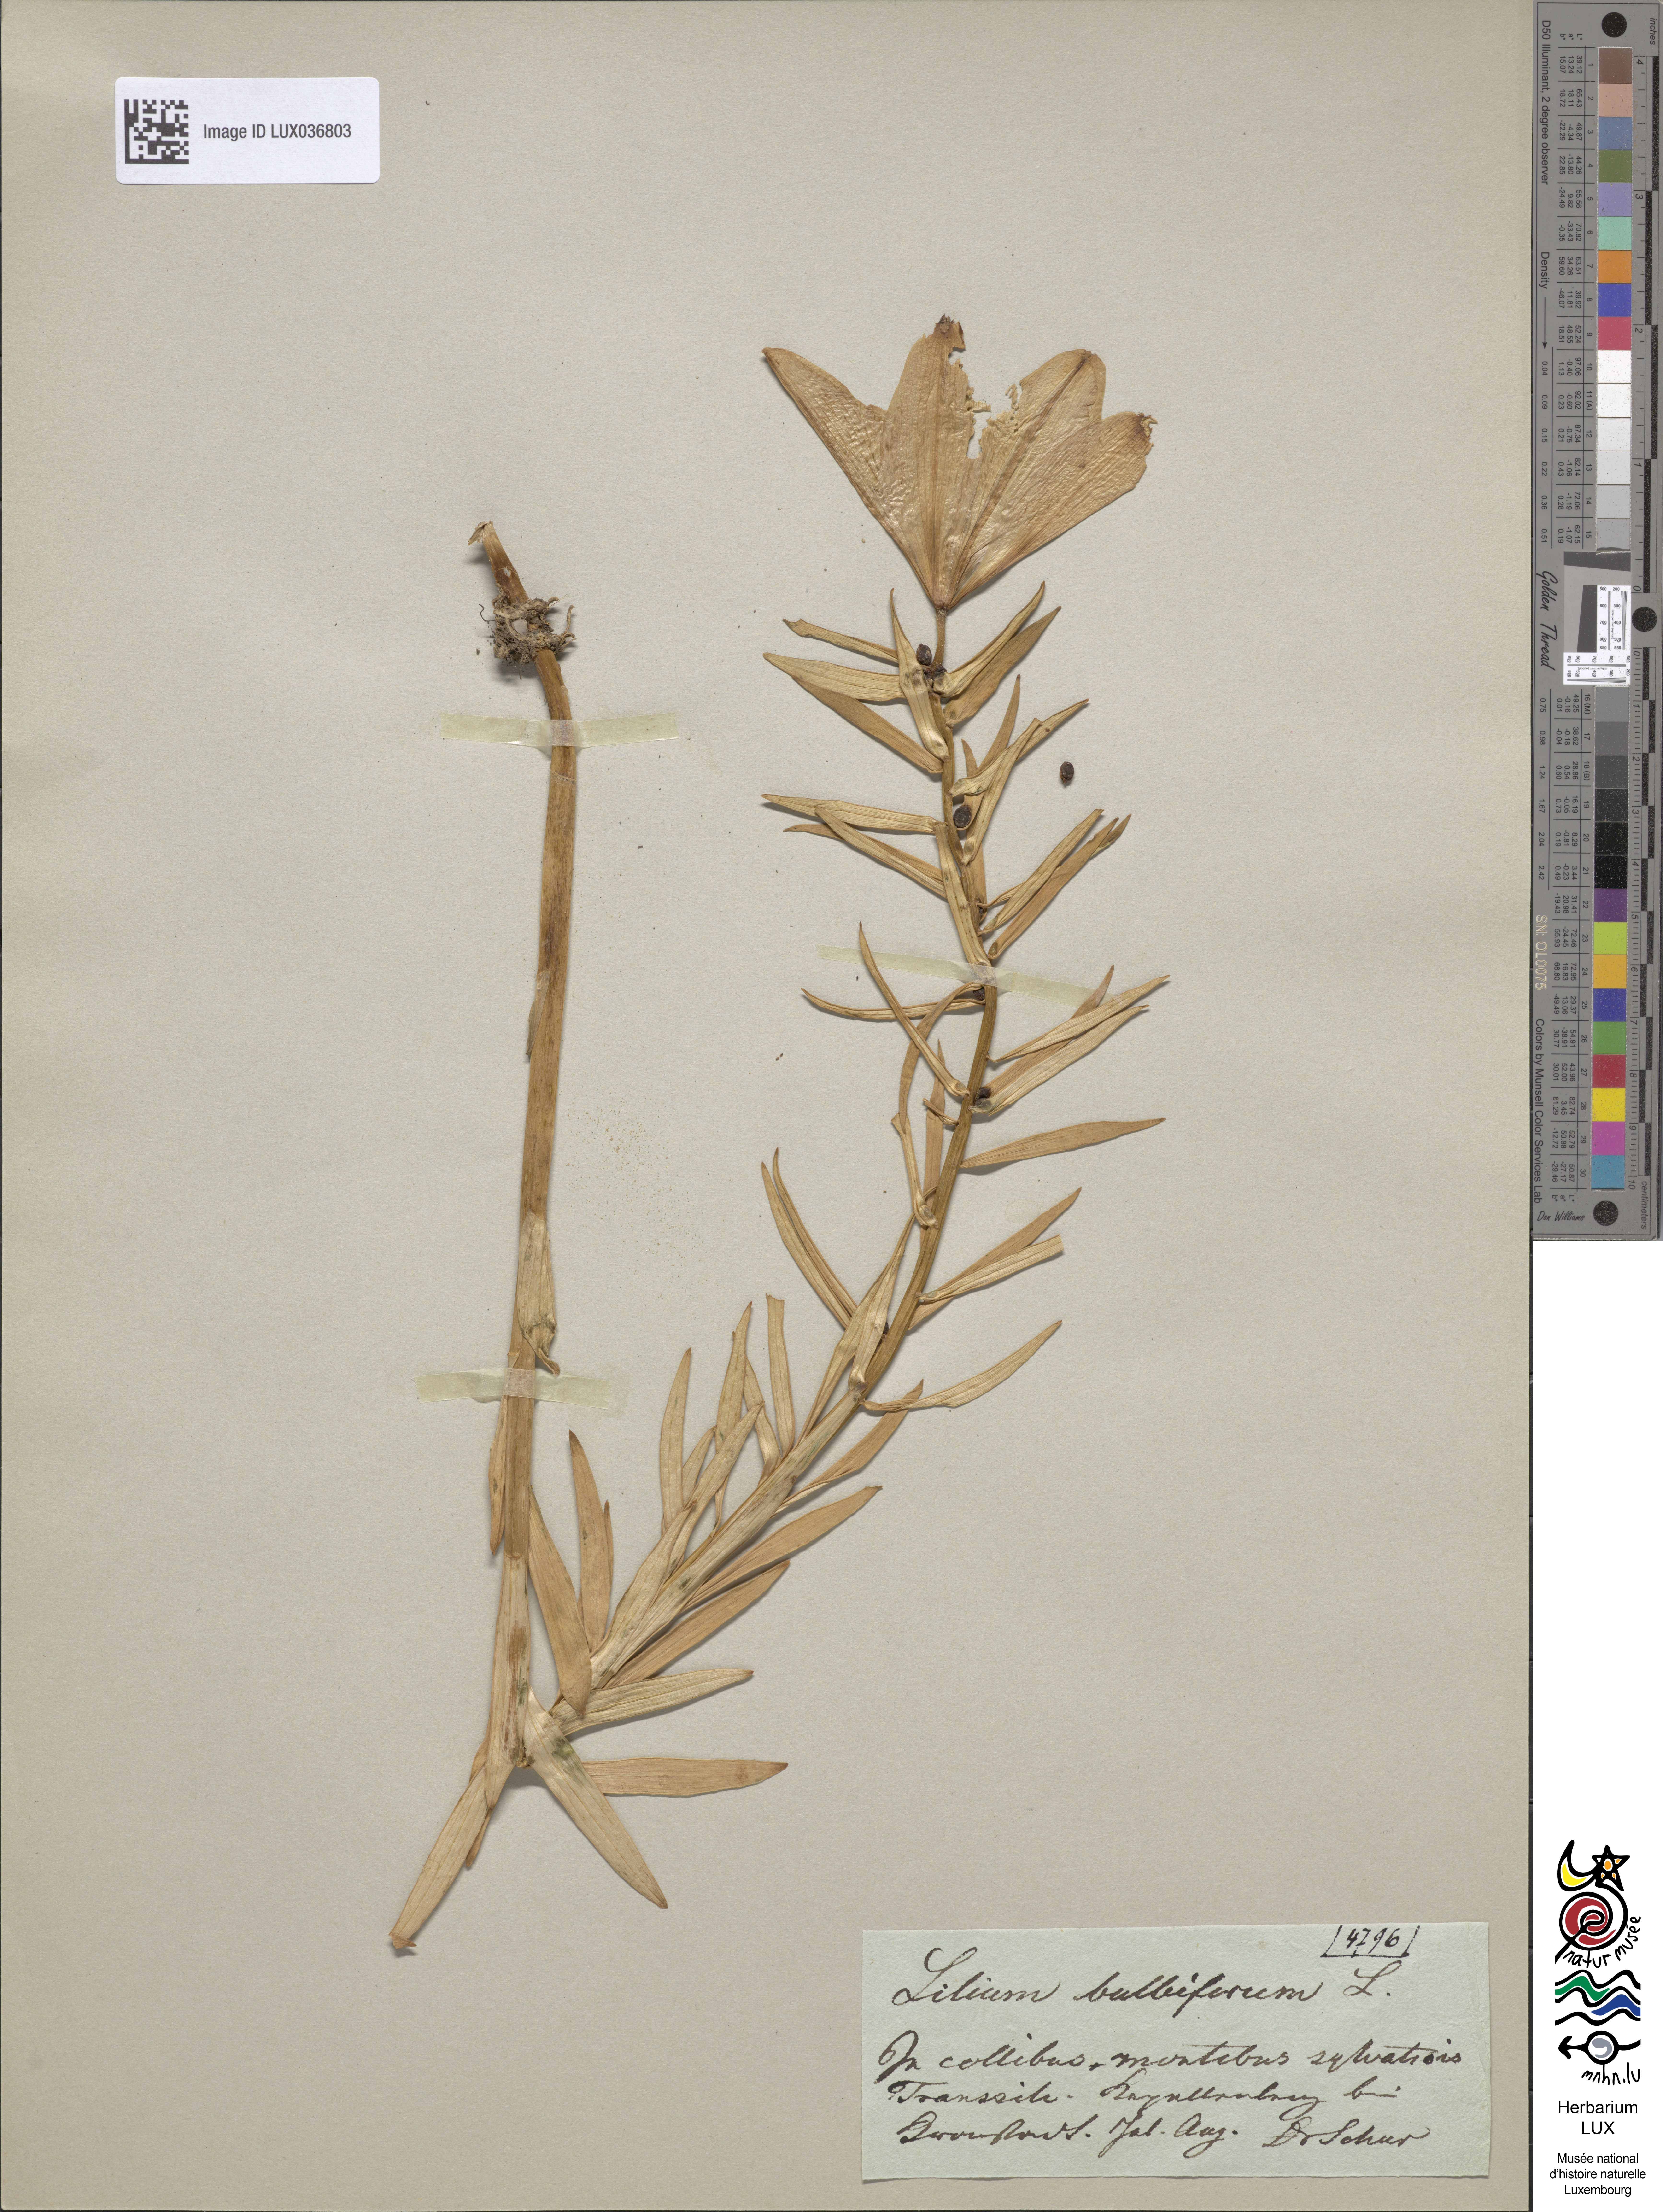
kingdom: Plantae
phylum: Tracheophyta
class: Liliopsida
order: Liliales
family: Liliaceae
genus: Lilium
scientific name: Lilium bulbiferum
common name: Orange lily
